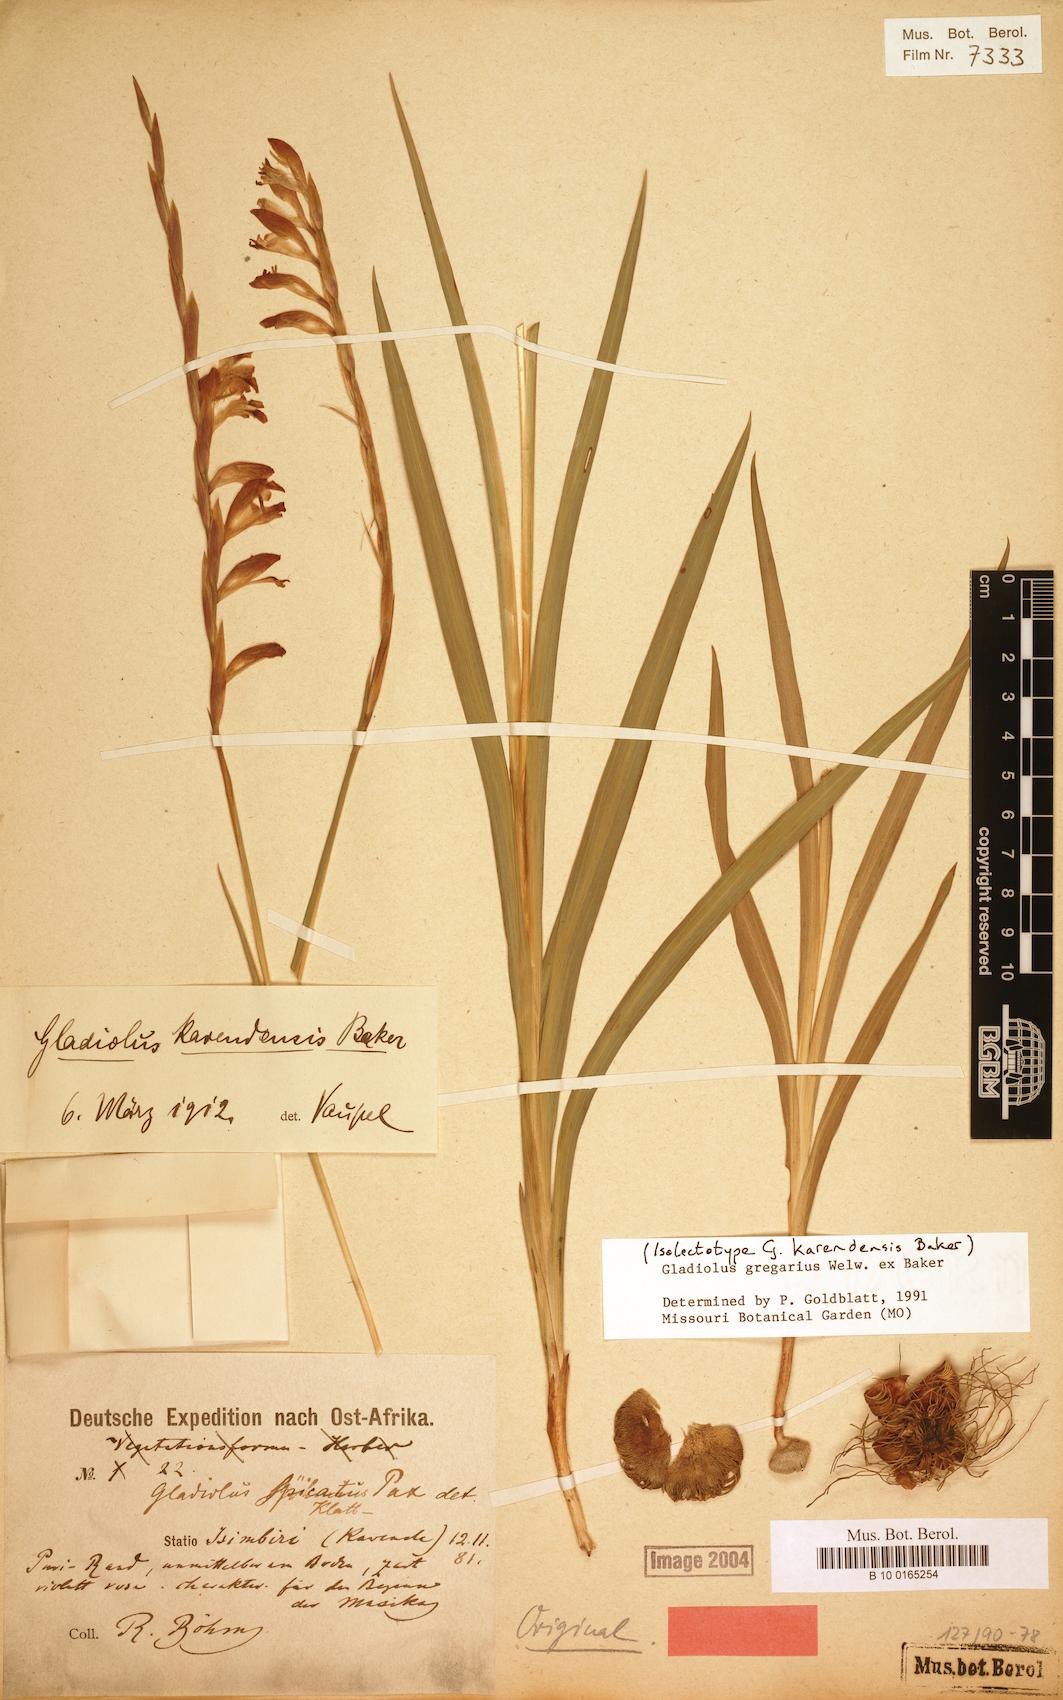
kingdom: Plantae
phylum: Tracheophyta
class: Liliopsida
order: Asparagales
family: Iridaceae
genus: Gladiolus
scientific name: Gladiolus gregarius
